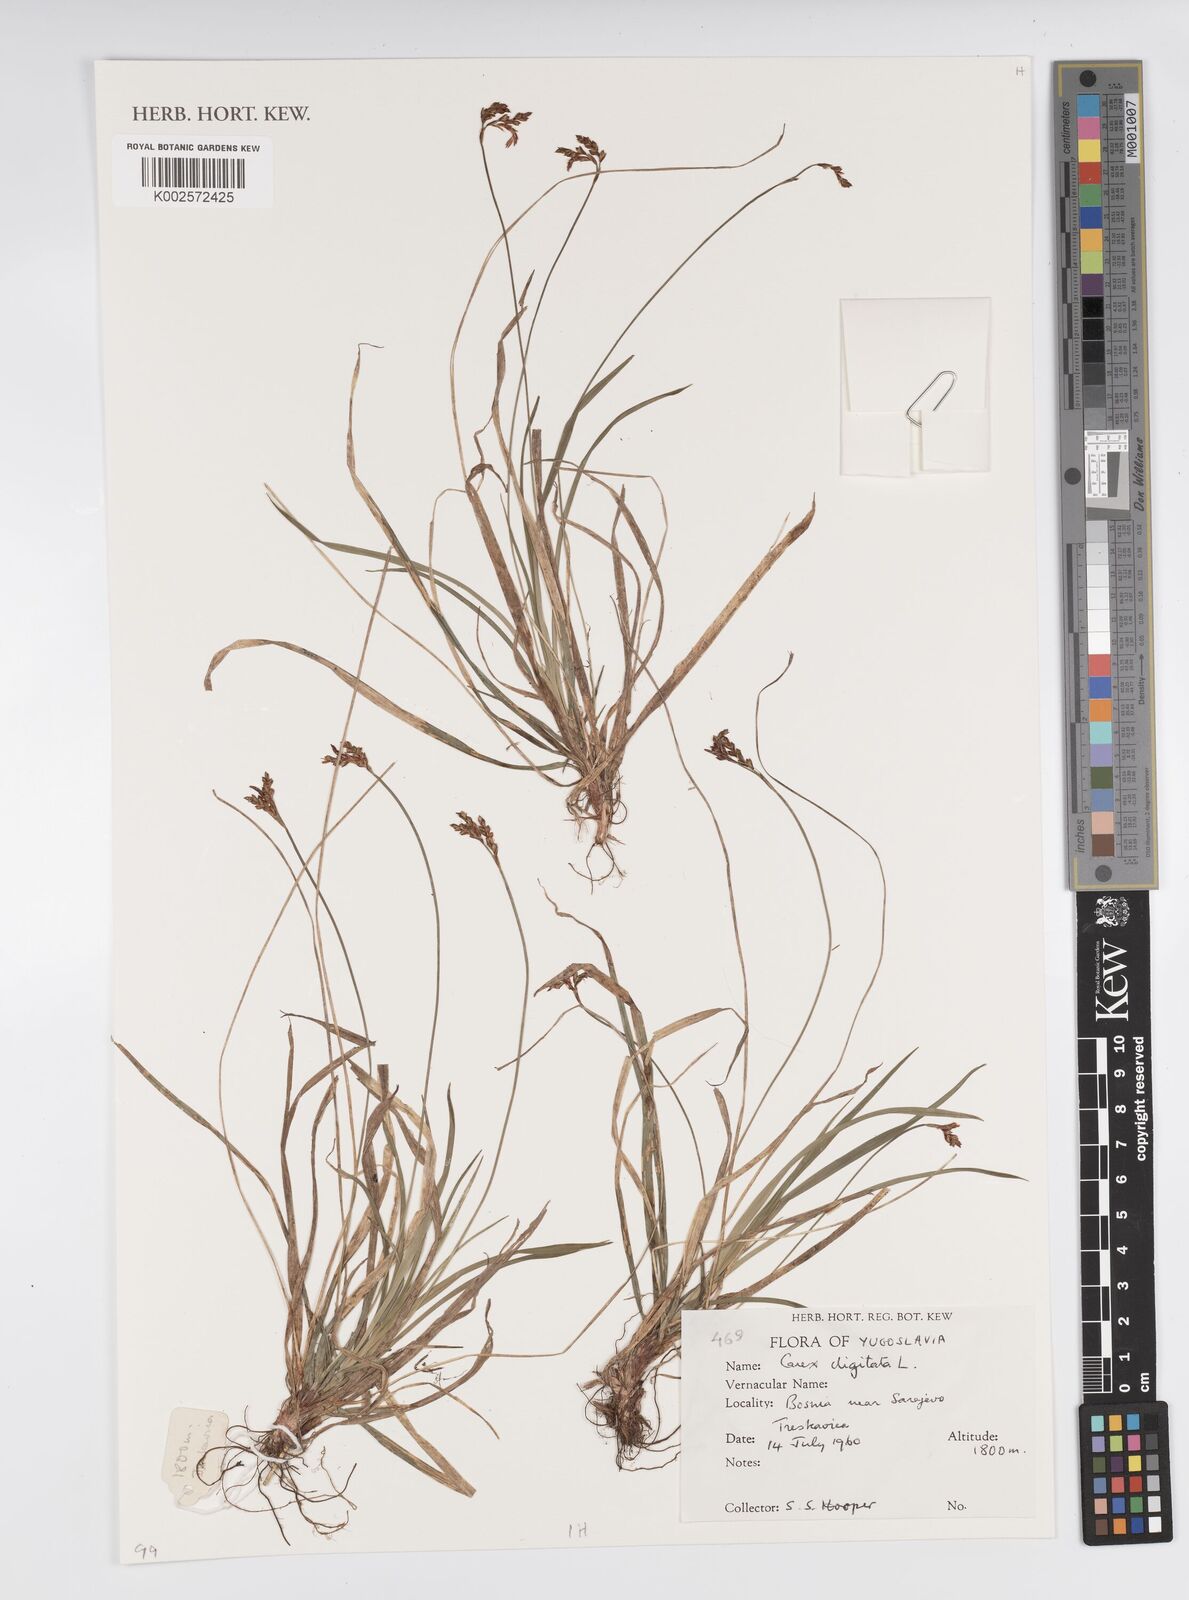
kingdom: Plantae
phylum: Tracheophyta
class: Liliopsida
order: Poales
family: Cyperaceae
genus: Carex
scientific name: Carex digitata
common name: Fingered sedge
